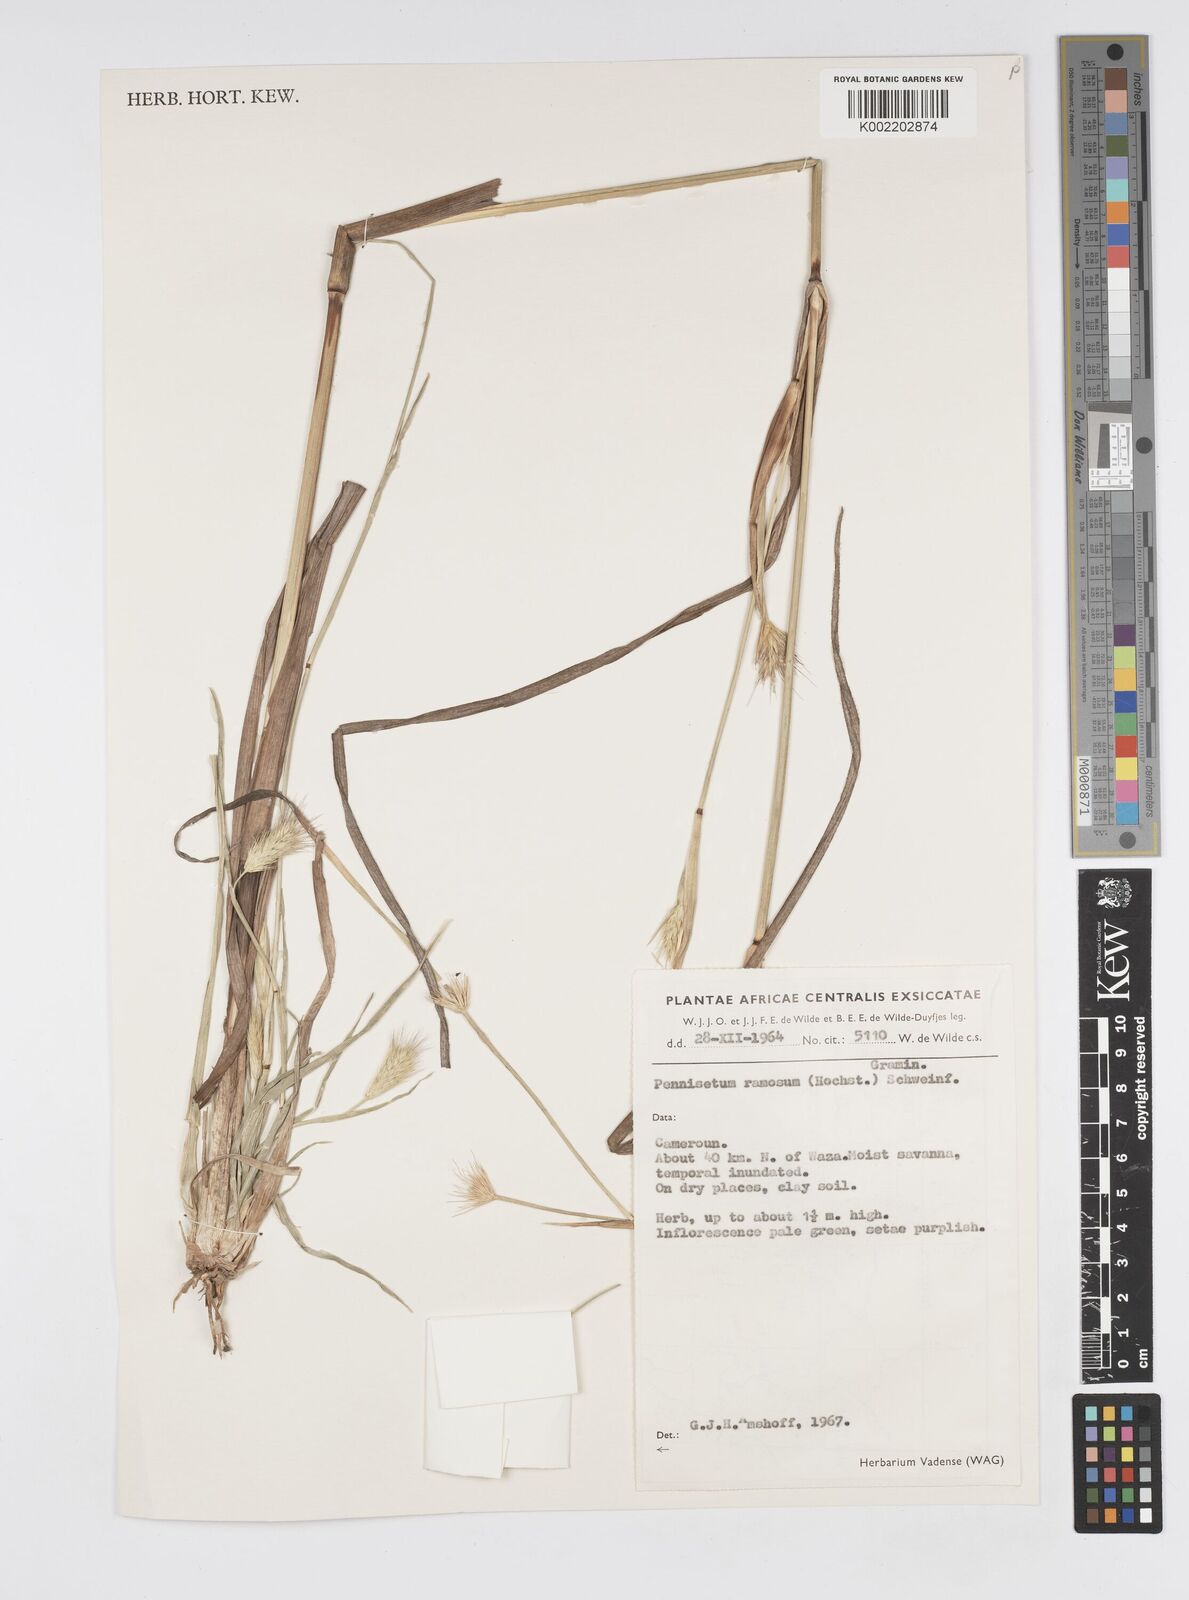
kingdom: Plantae
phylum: Tracheophyta
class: Liliopsida
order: Poales
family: Poaceae
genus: Cenchrus
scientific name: Cenchrus setosus
